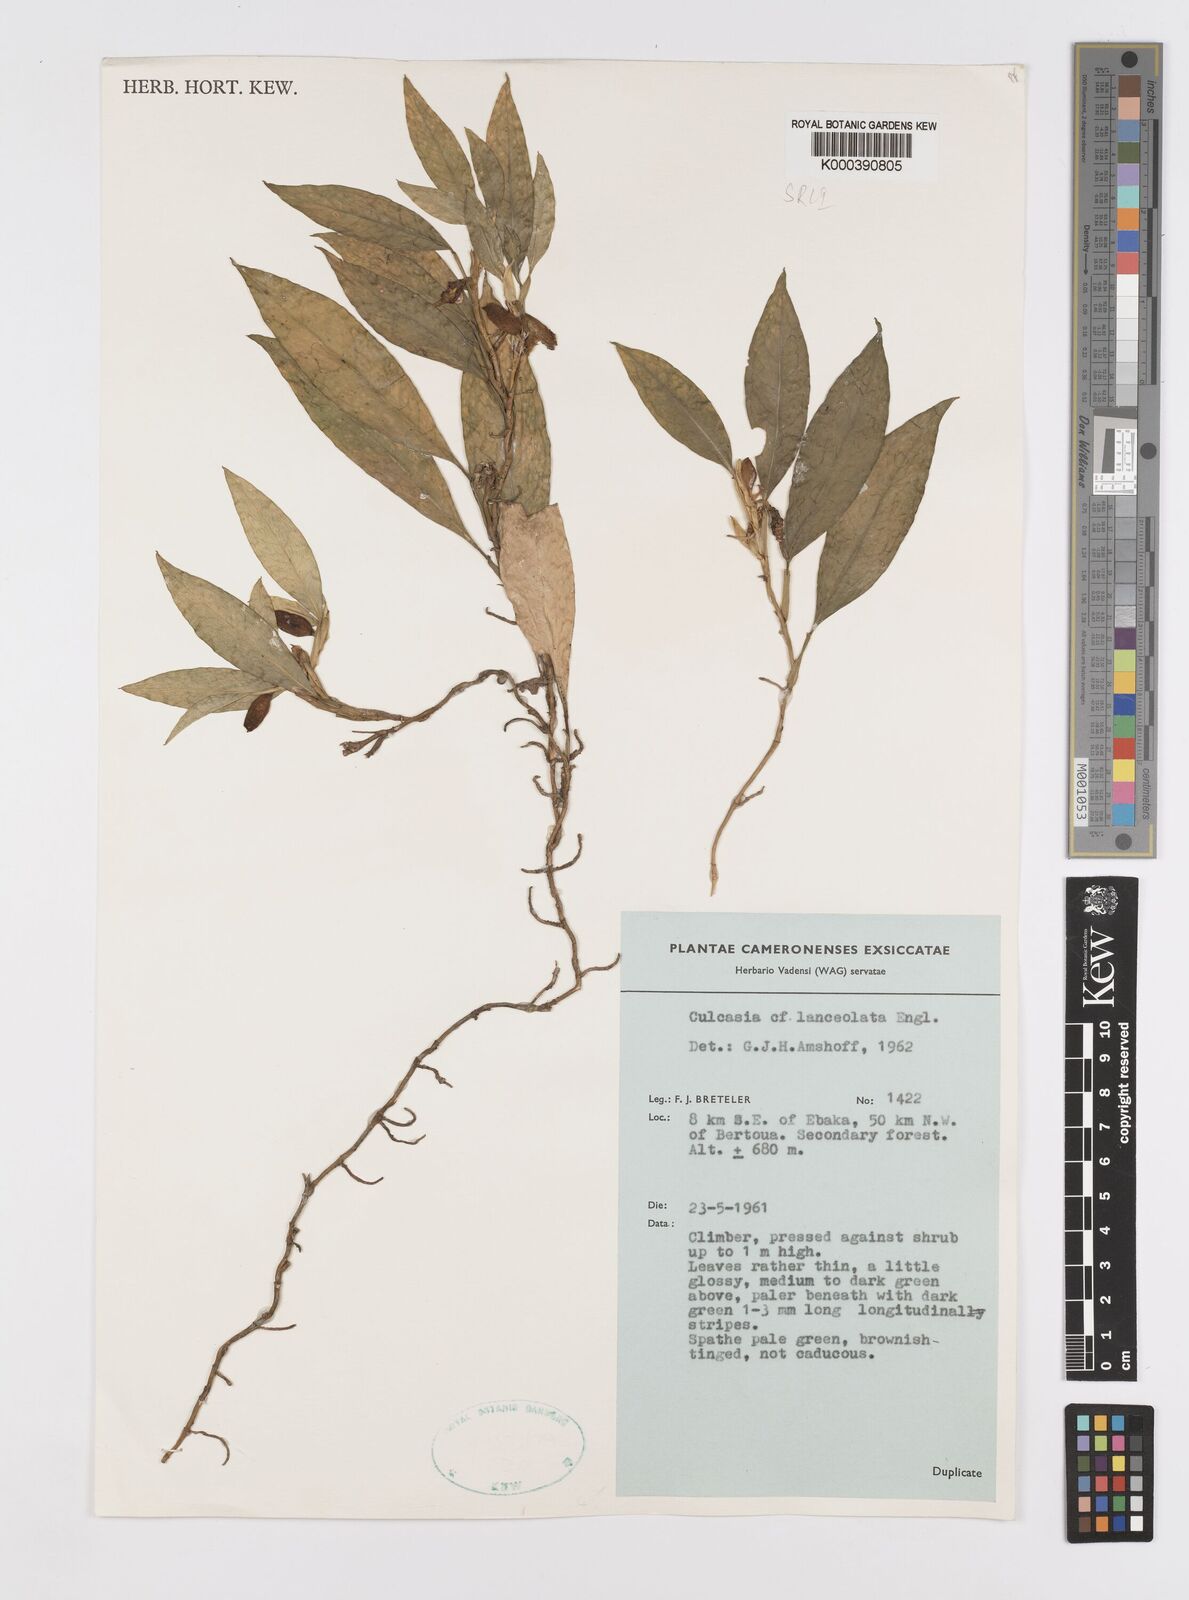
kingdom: Plantae
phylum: Tracheophyta
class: Liliopsida
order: Alismatales
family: Araceae
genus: Culcasia
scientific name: Culcasia lanceolata
